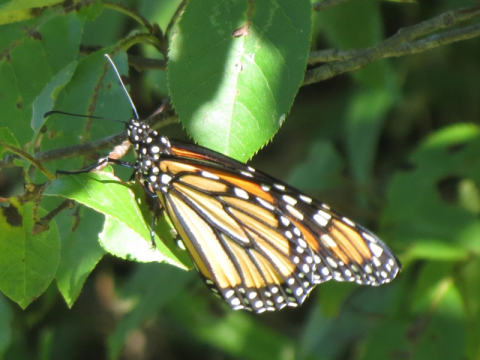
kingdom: Animalia
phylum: Arthropoda
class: Insecta
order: Lepidoptera
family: Nymphalidae
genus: Danaus
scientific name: Danaus plexippus
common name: Monarch
